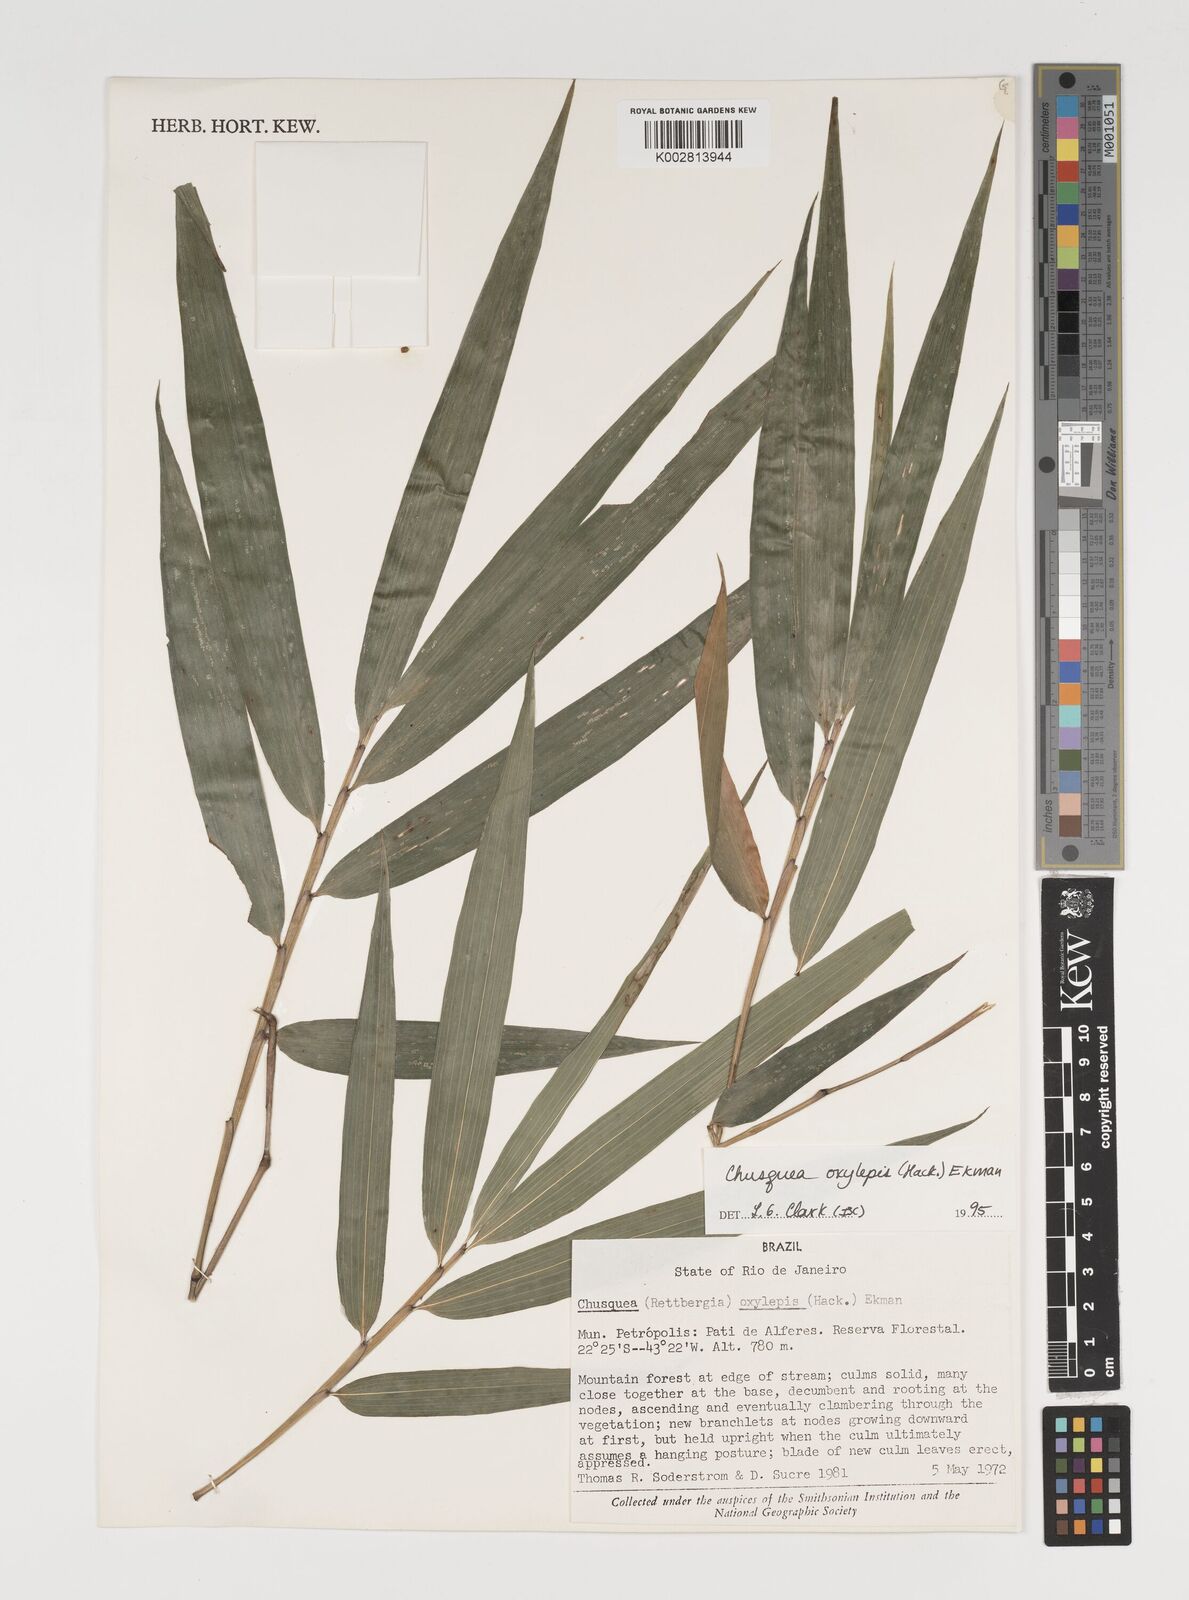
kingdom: Plantae
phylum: Tracheophyta
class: Liliopsida
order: Poales
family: Poaceae
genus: Chusquea
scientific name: Chusquea oxylepis
